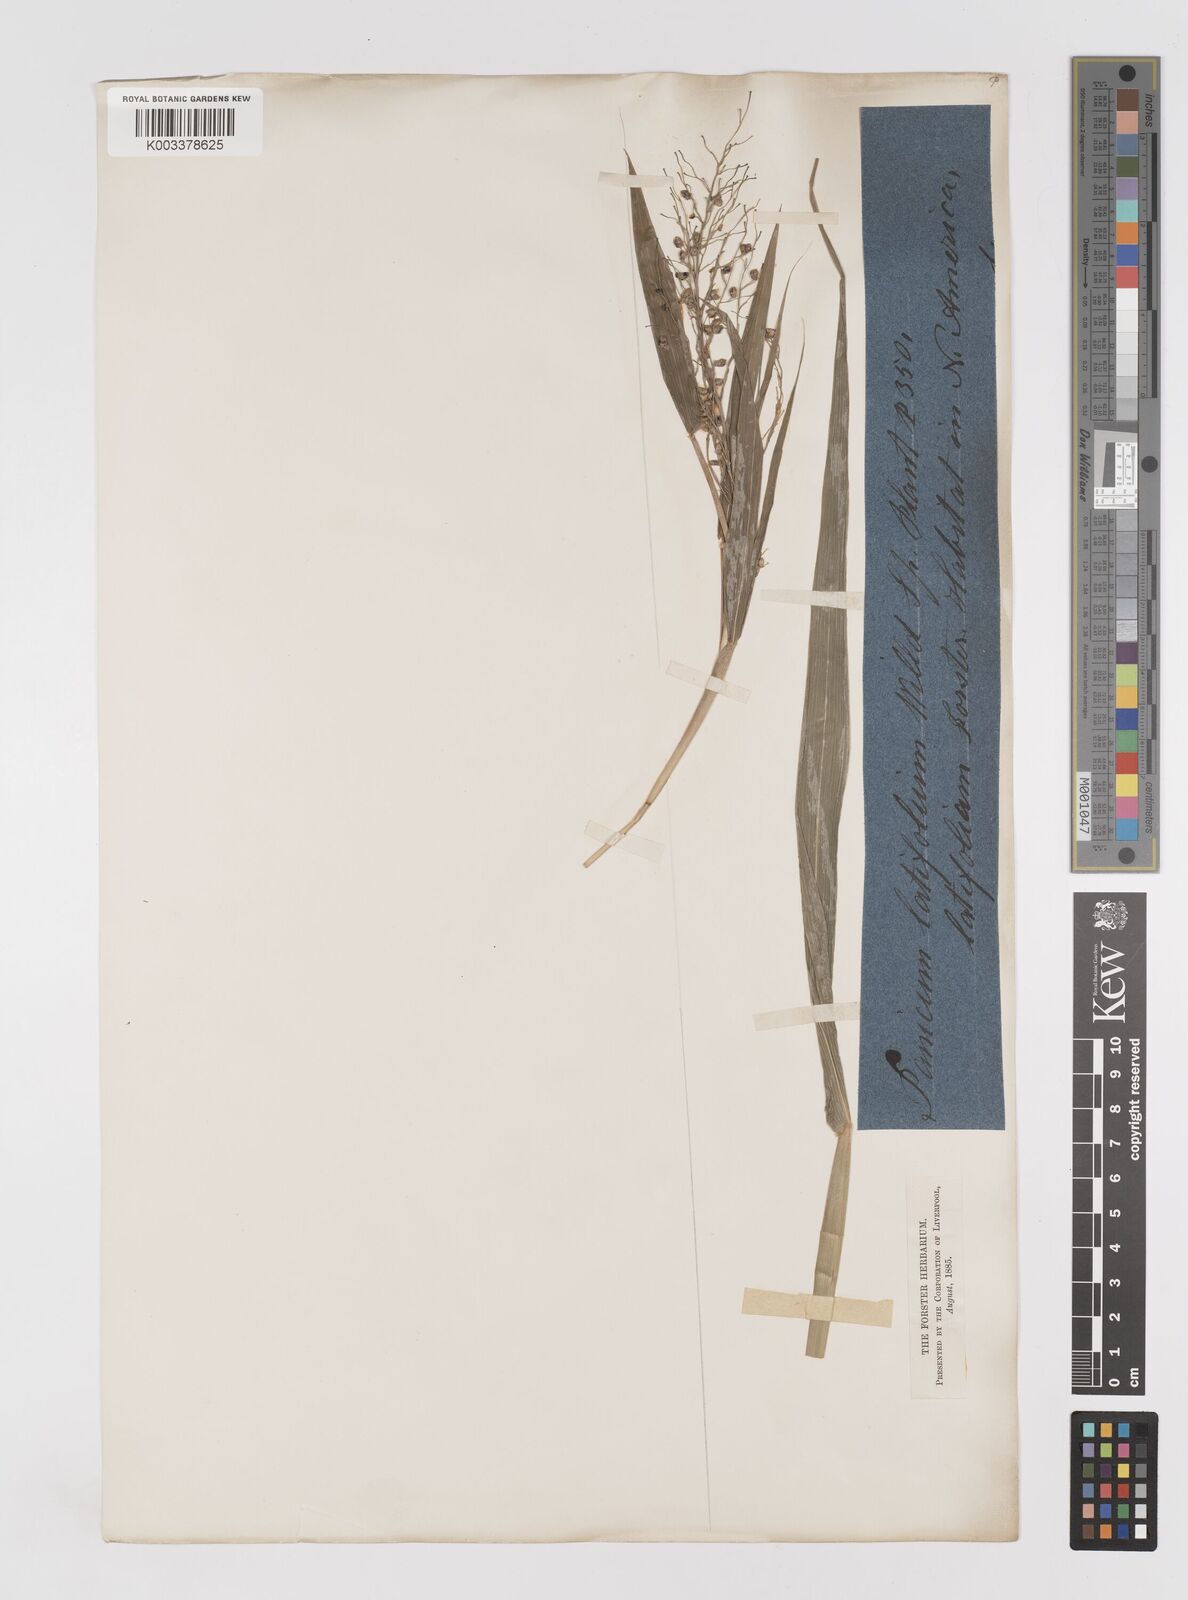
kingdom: Plantae
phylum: Tracheophyta
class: Liliopsida
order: Poales
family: Poaceae
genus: Lasiacis
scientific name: Lasiacis
